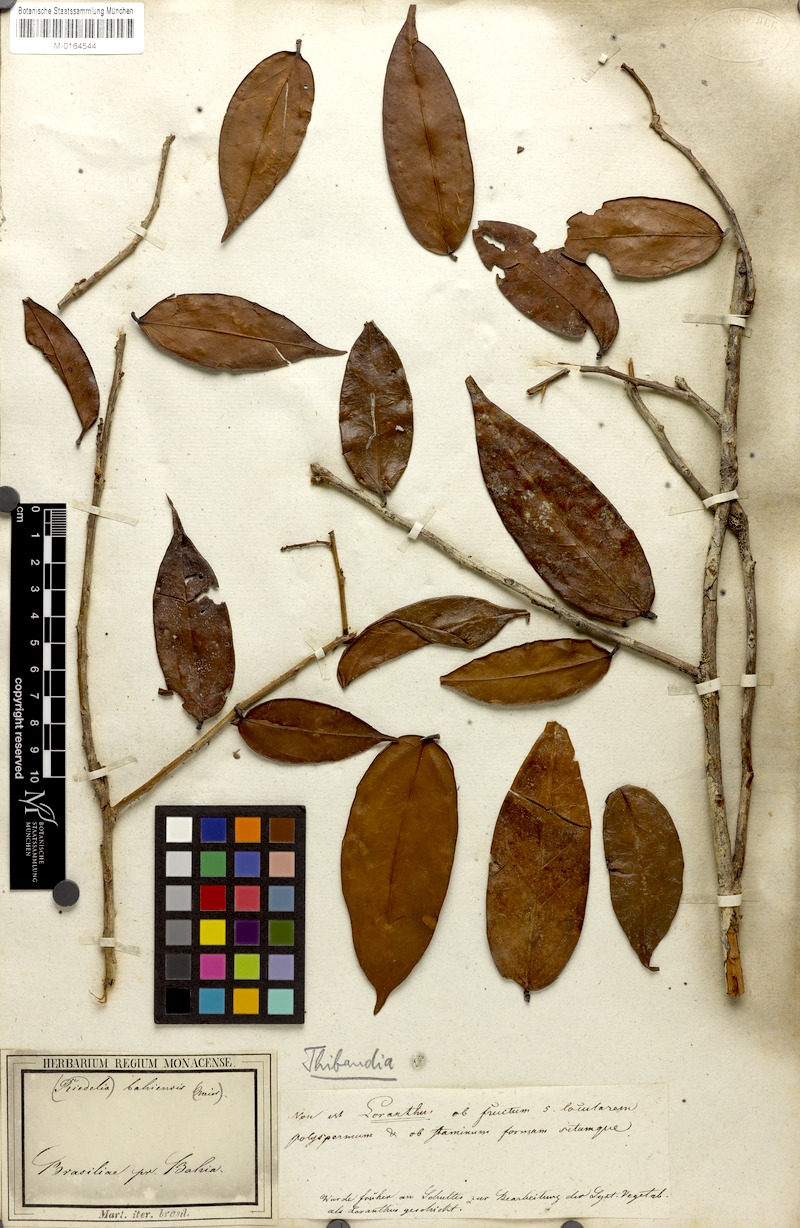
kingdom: Plantae
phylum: Tracheophyta
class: Magnoliopsida
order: Ericales
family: Ericaceae
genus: Satyria
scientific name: Satyria panurensis
